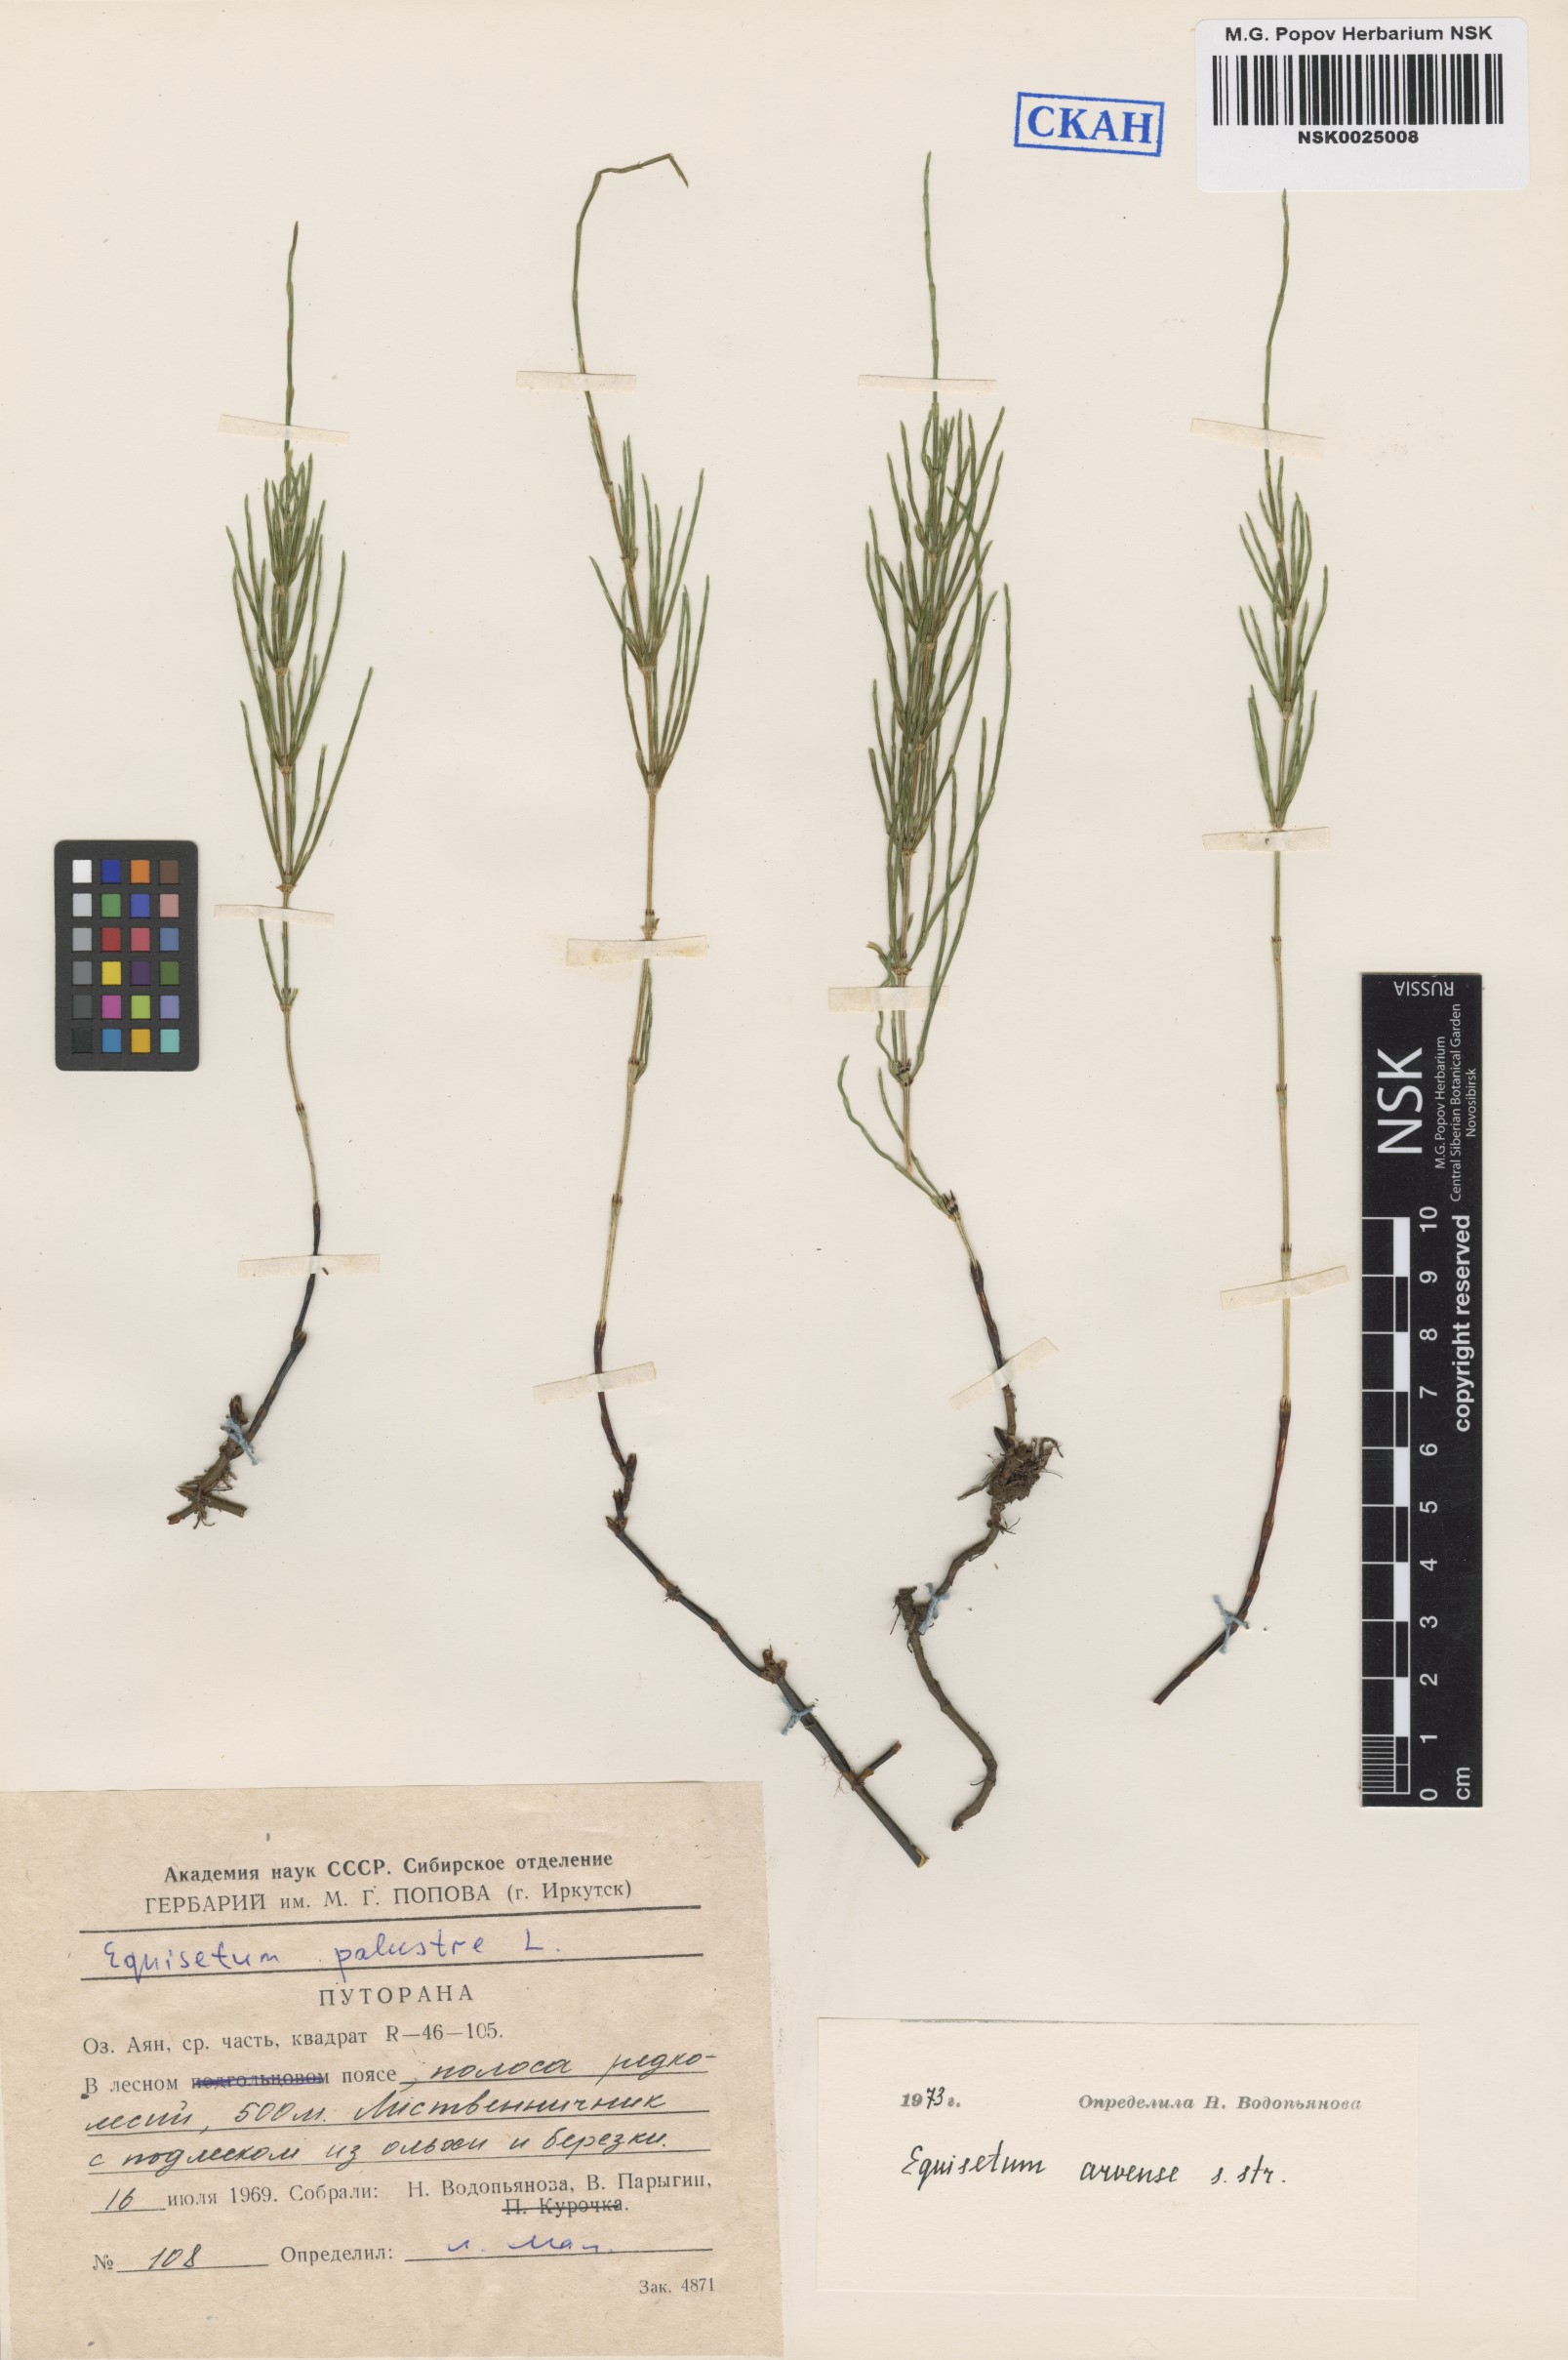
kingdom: Plantae
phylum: Tracheophyta
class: Polypodiopsida
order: Equisetales
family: Equisetaceae
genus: Equisetum
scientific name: Equisetum arvense
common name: Field horsetail
